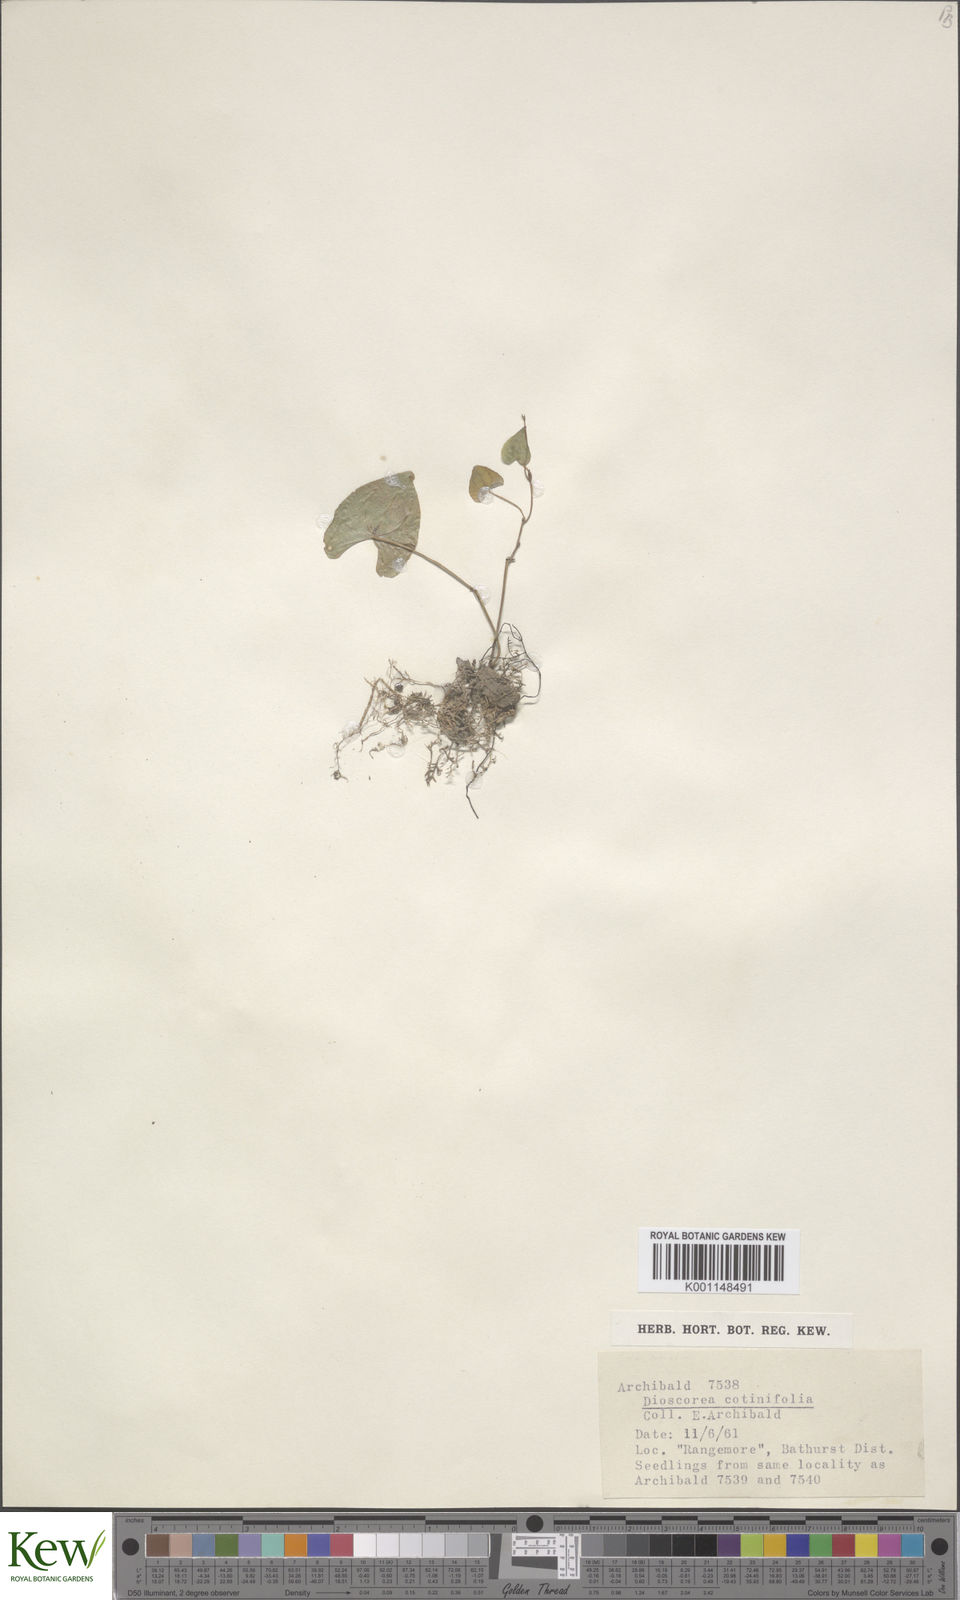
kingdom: Plantae
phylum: Tracheophyta
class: Liliopsida
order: Dioscoreales
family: Dioscoreaceae
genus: Dioscorea
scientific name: Dioscorea cotinifolia
